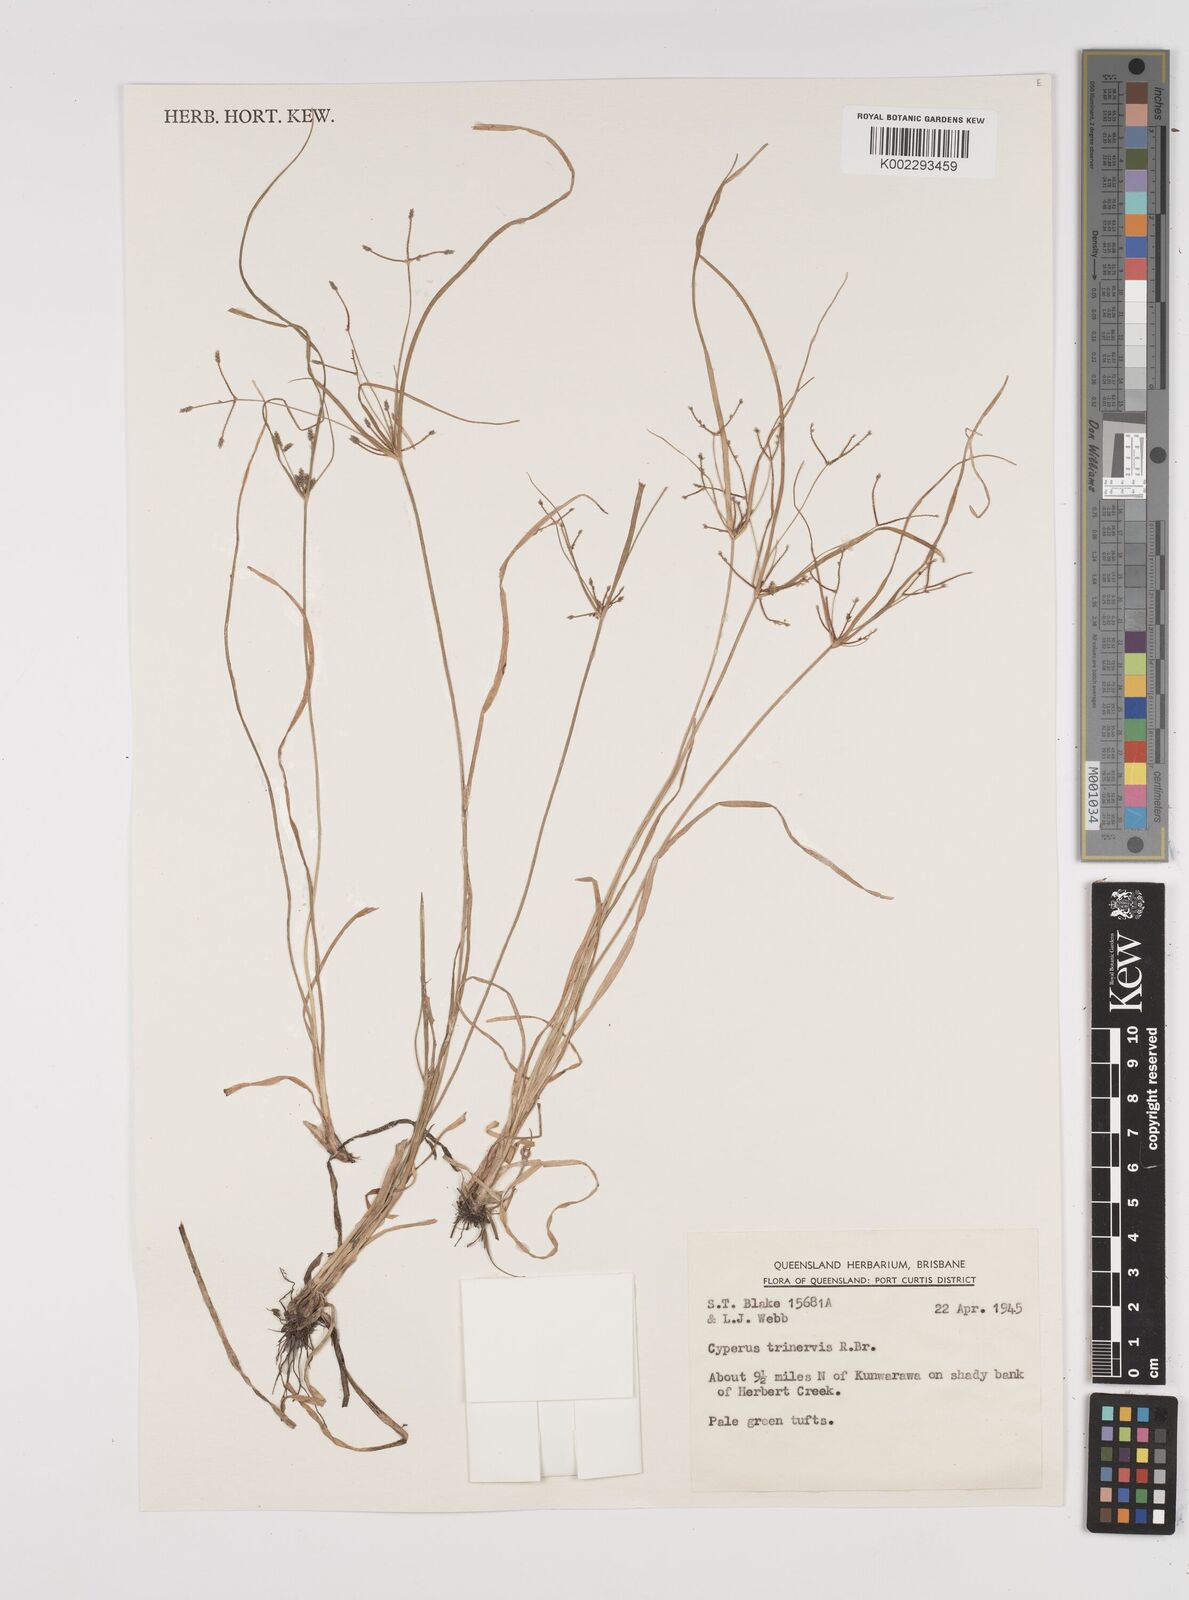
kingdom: Plantae
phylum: Tracheophyta
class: Liliopsida
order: Poales
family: Cyperaceae
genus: Cyperus
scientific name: Cyperus trinervis
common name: Australian flatsedge
